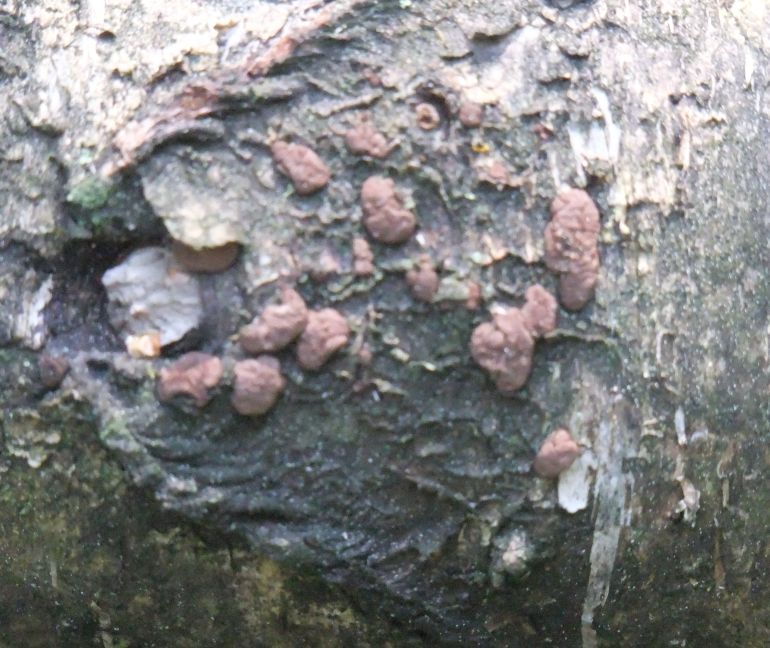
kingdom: Fungi
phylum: Ascomycota
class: Sordariomycetes
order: Xylariales
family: Hypoxylaceae
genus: Jackrogersella
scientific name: Jackrogersella multiformis
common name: foranderlig kulbær
